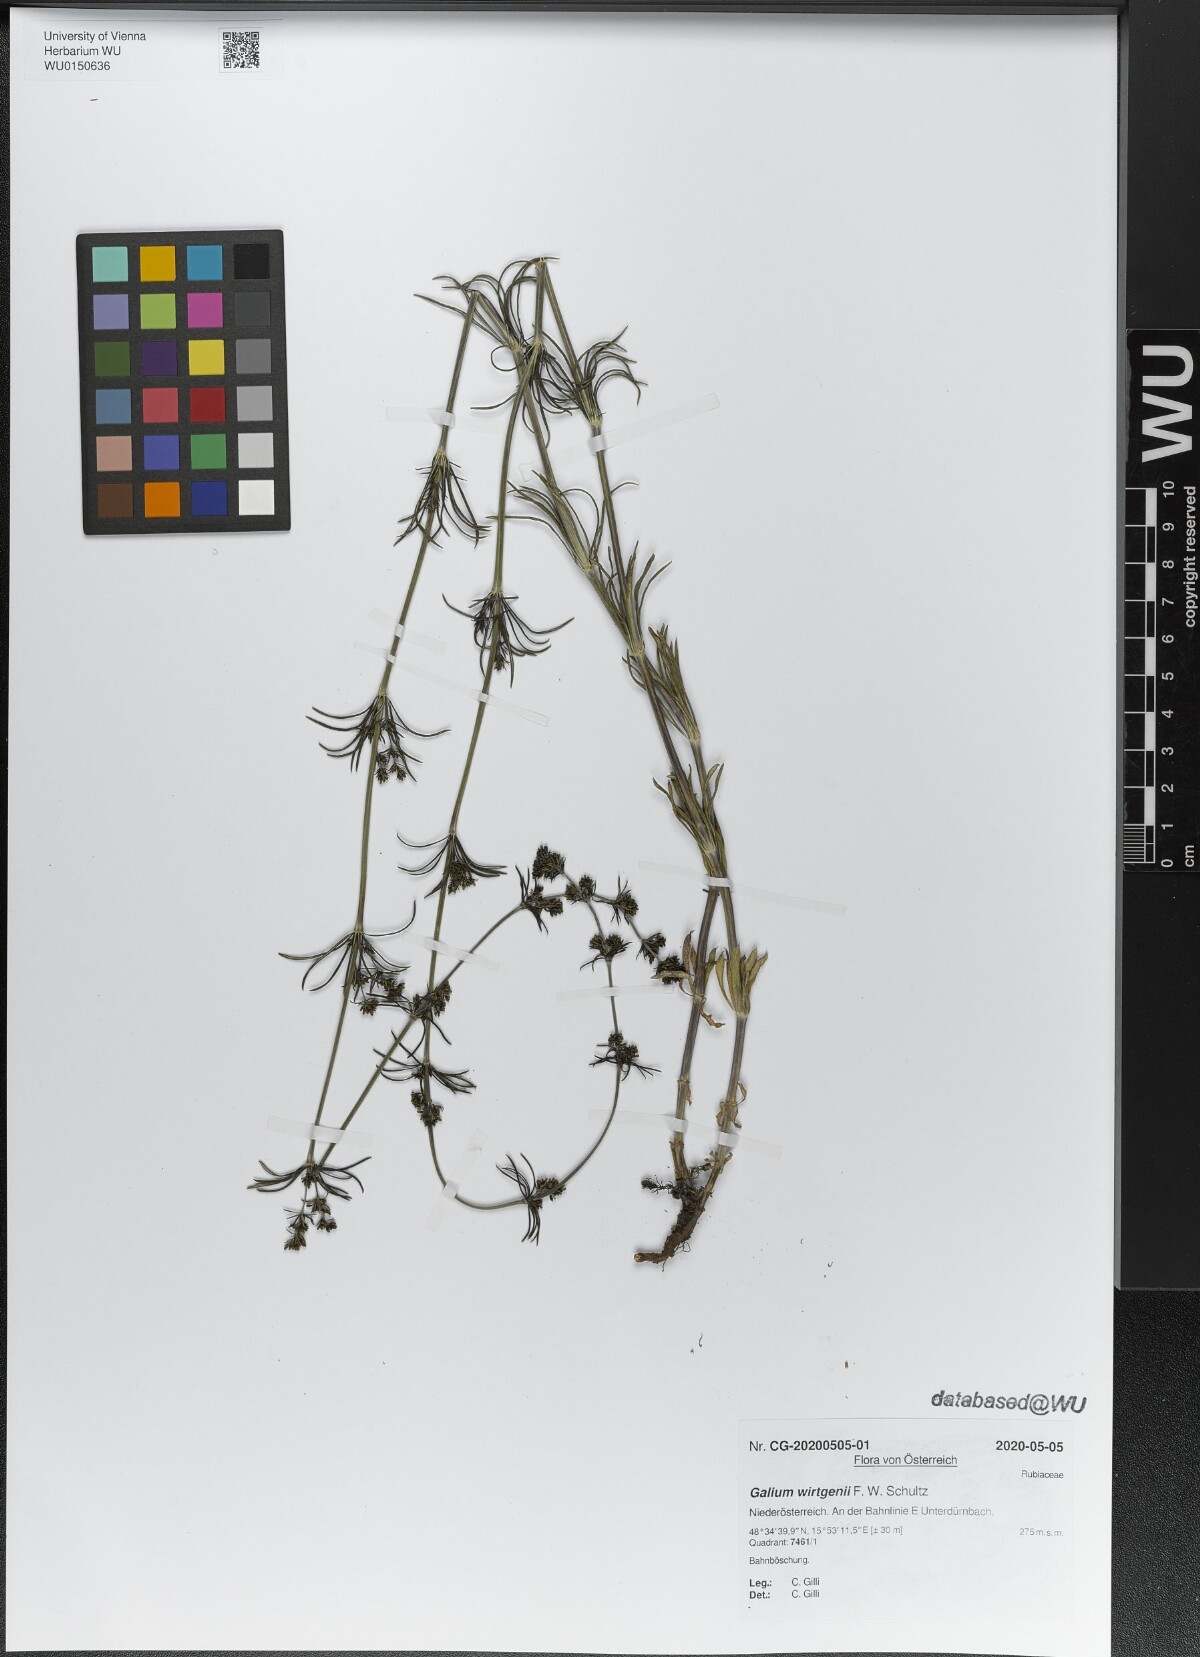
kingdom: Plantae
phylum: Tracheophyta
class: Magnoliopsida
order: Gentianales
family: Rubiaceae
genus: Galium
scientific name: Galium verum
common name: Lady's bedstraw
